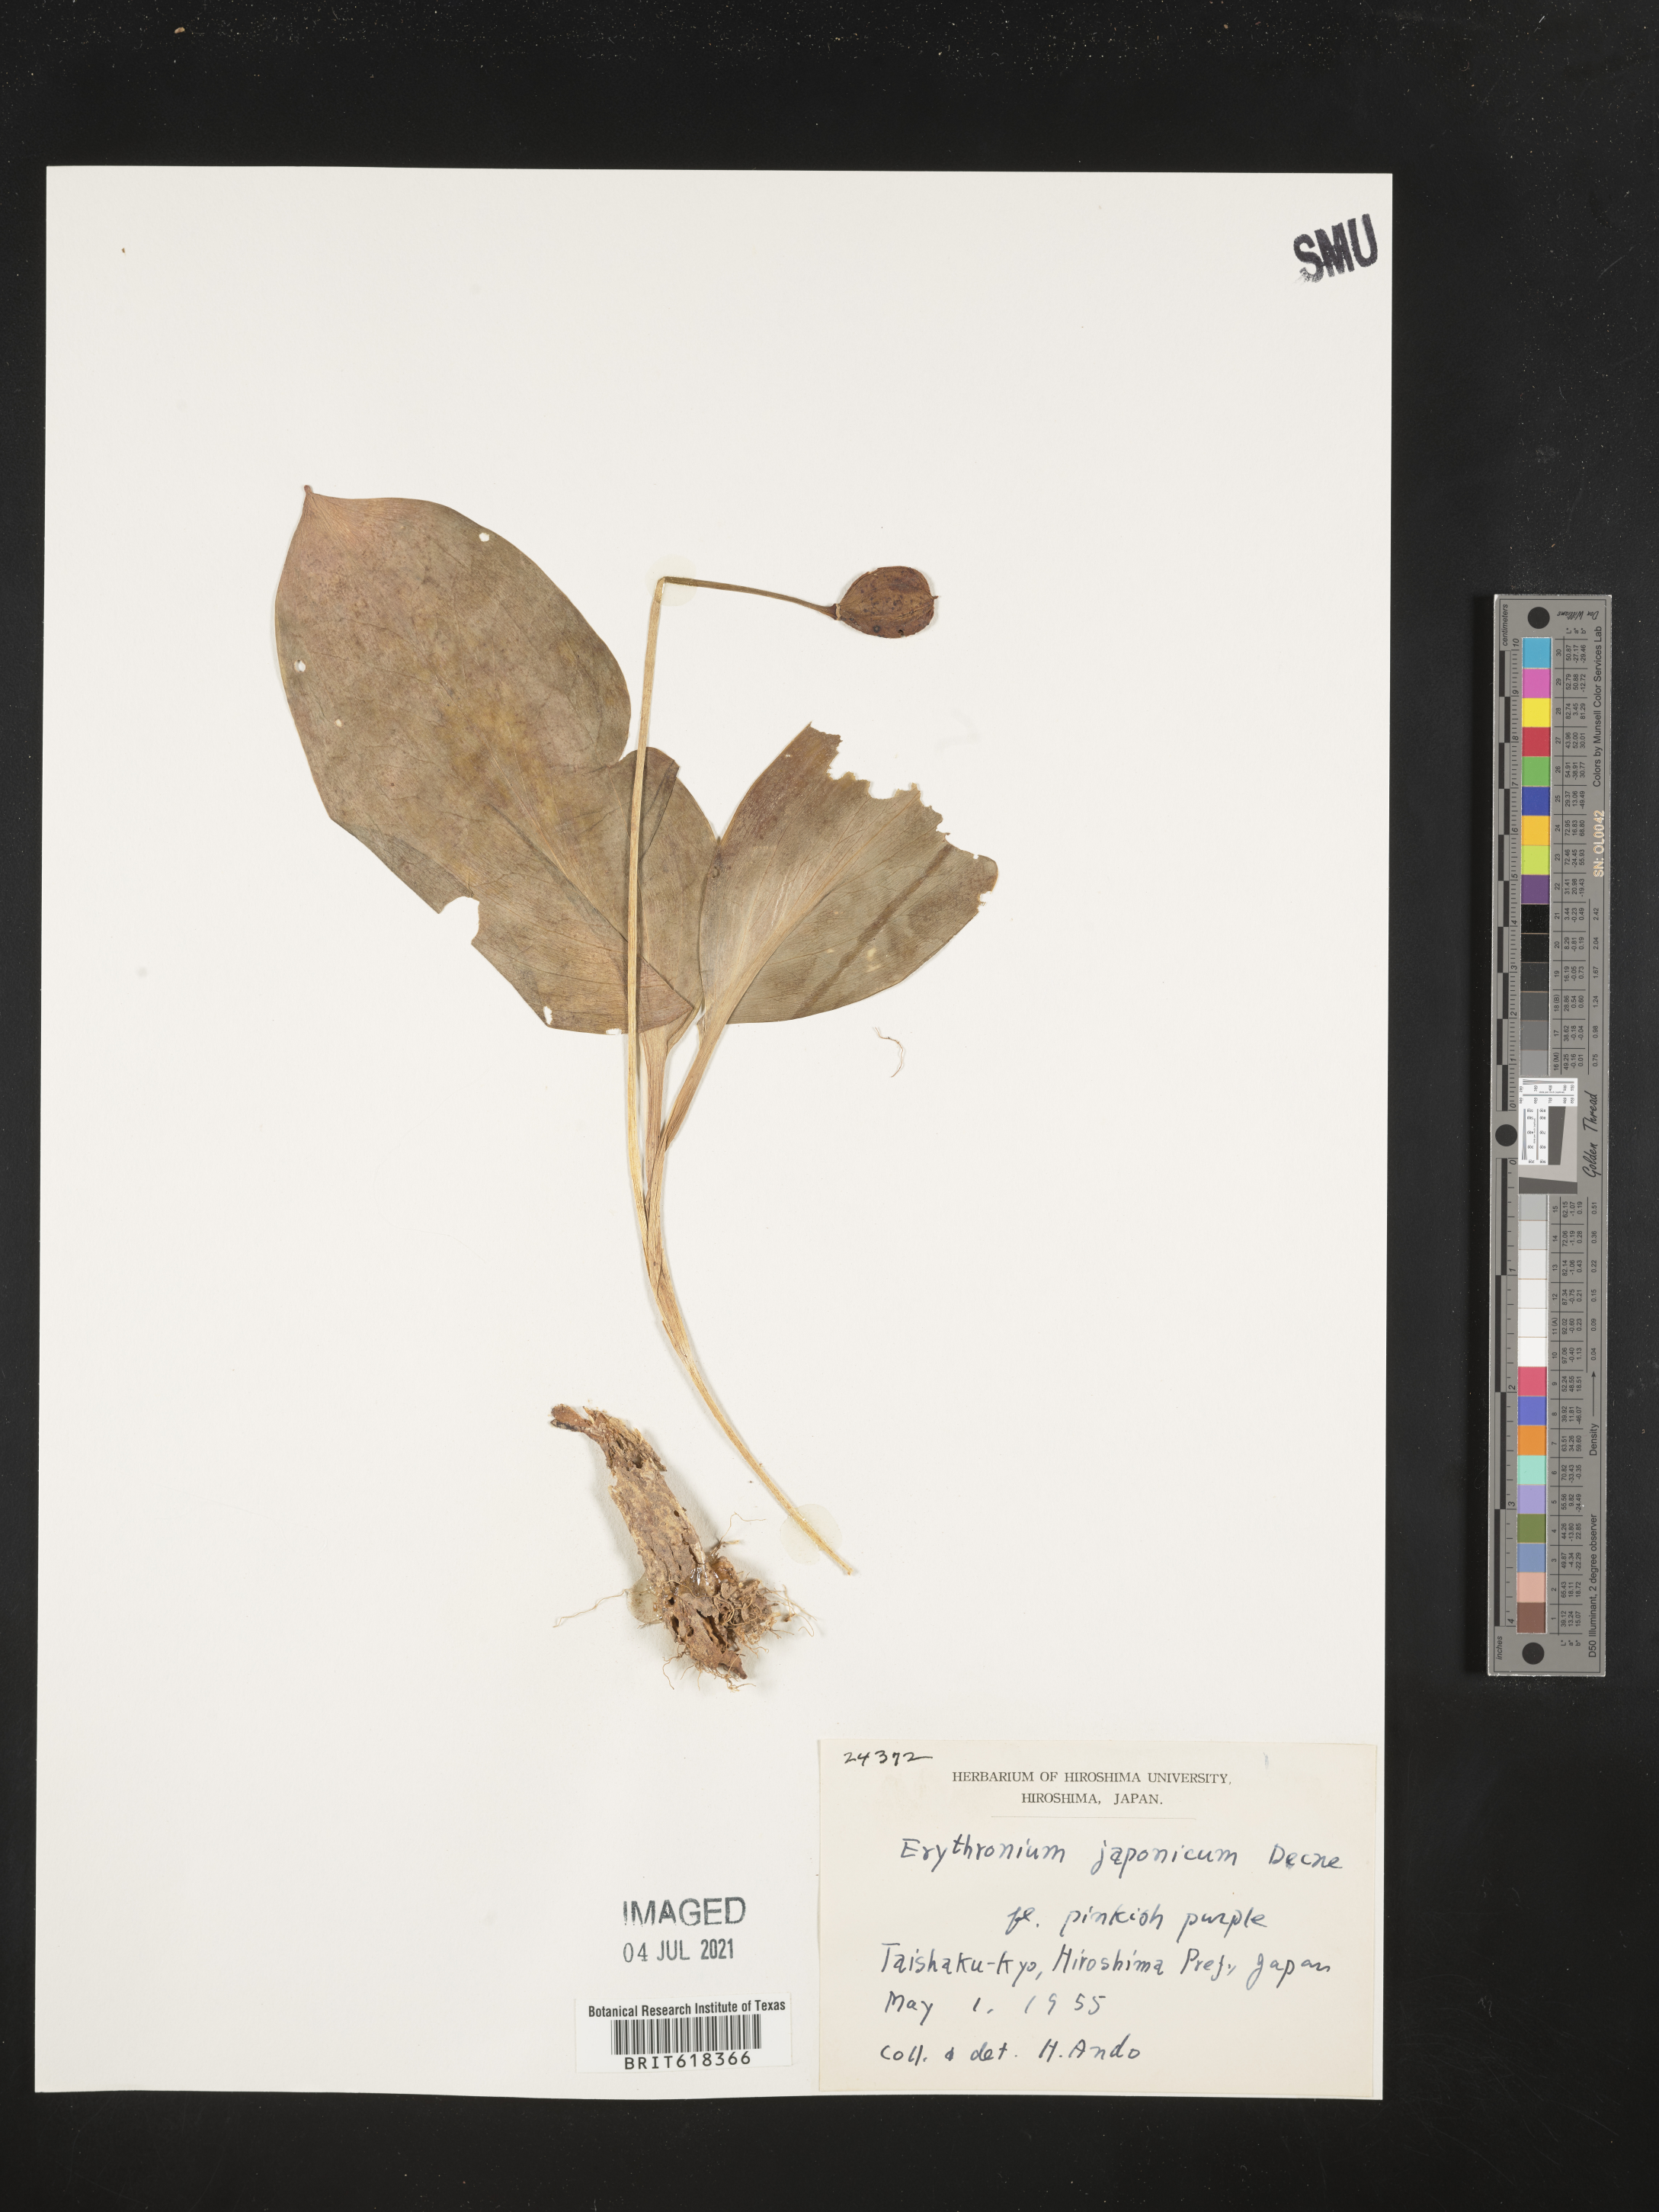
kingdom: Plantae
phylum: Tracheophyta
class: Liliopsida
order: Liliales
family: Liliaceae
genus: Erythronium
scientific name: Erythronium japonicum
